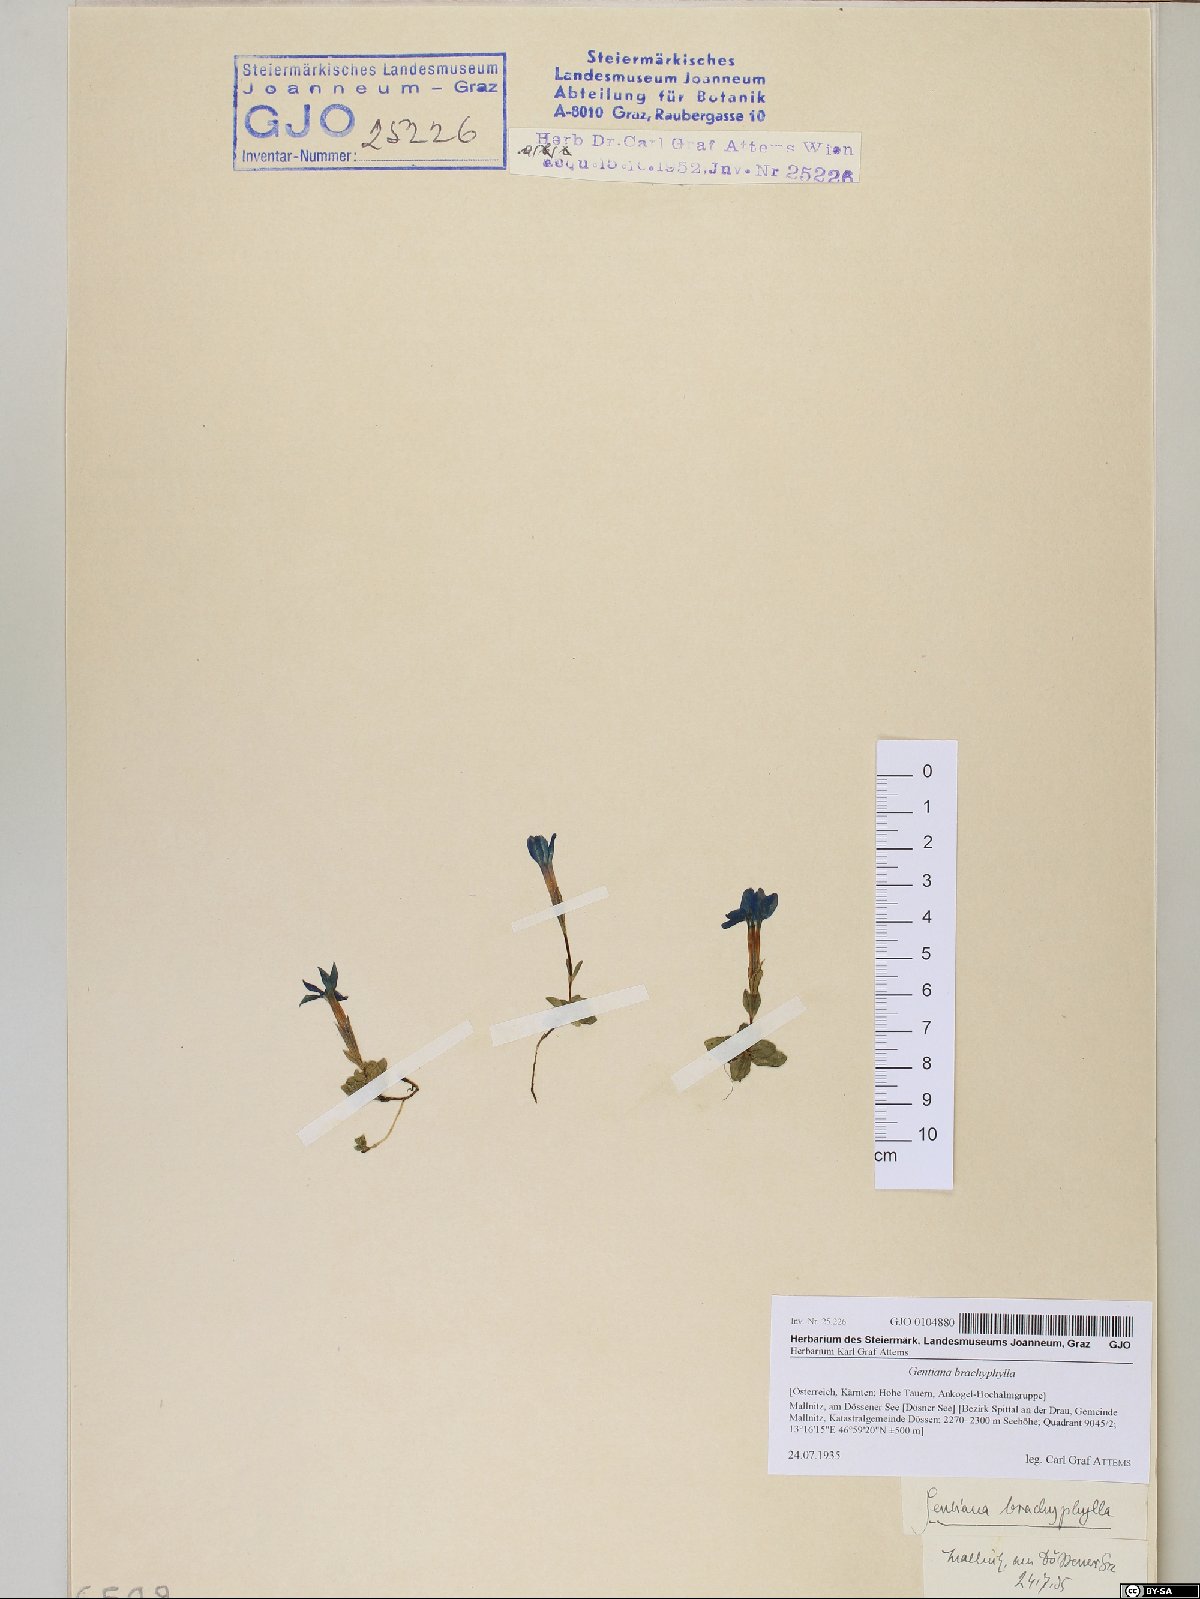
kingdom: Plantae
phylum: Tracheophyta
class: Magnoliopsida
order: Gentianales
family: Gentianaceae
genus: Gentiana
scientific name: Gentiana brachyphylla
